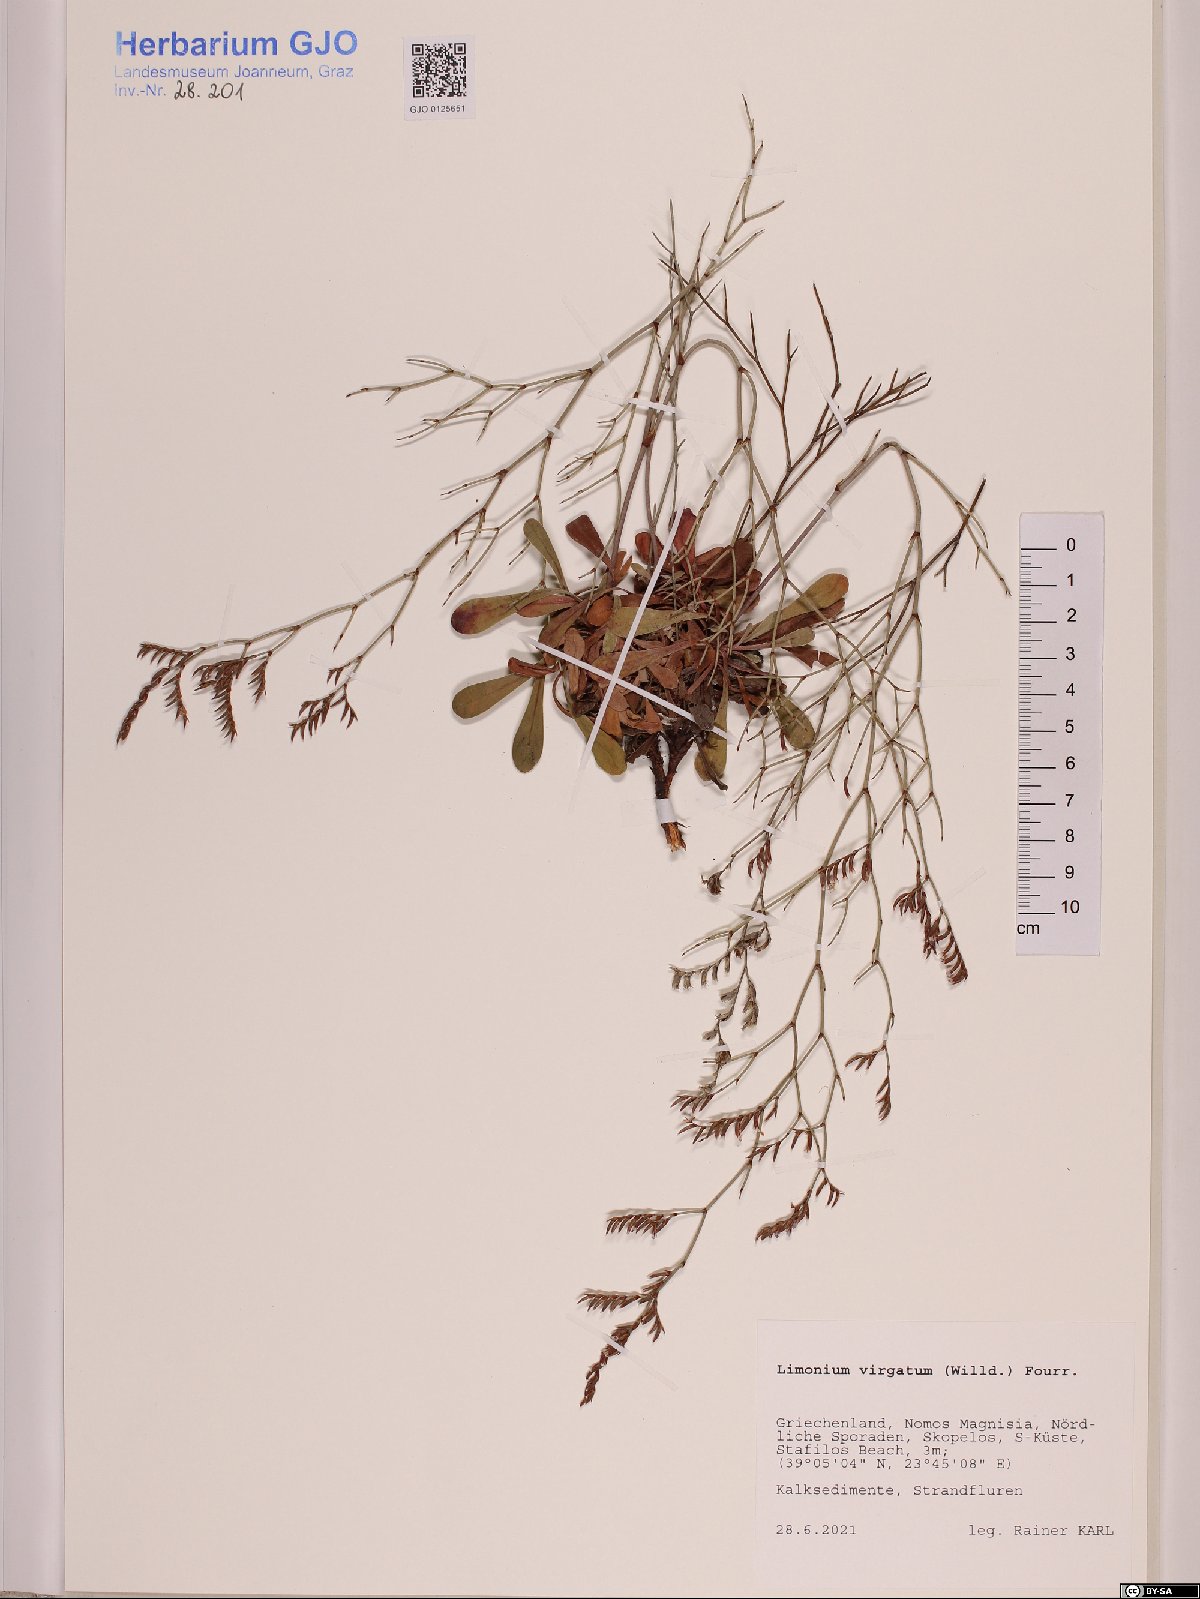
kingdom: Plantae
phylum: Tracheophyta
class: Magnoliopsida
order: Caryophyllales
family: Plumbaginaceae
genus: Limonium
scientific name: Limonium virgatum
